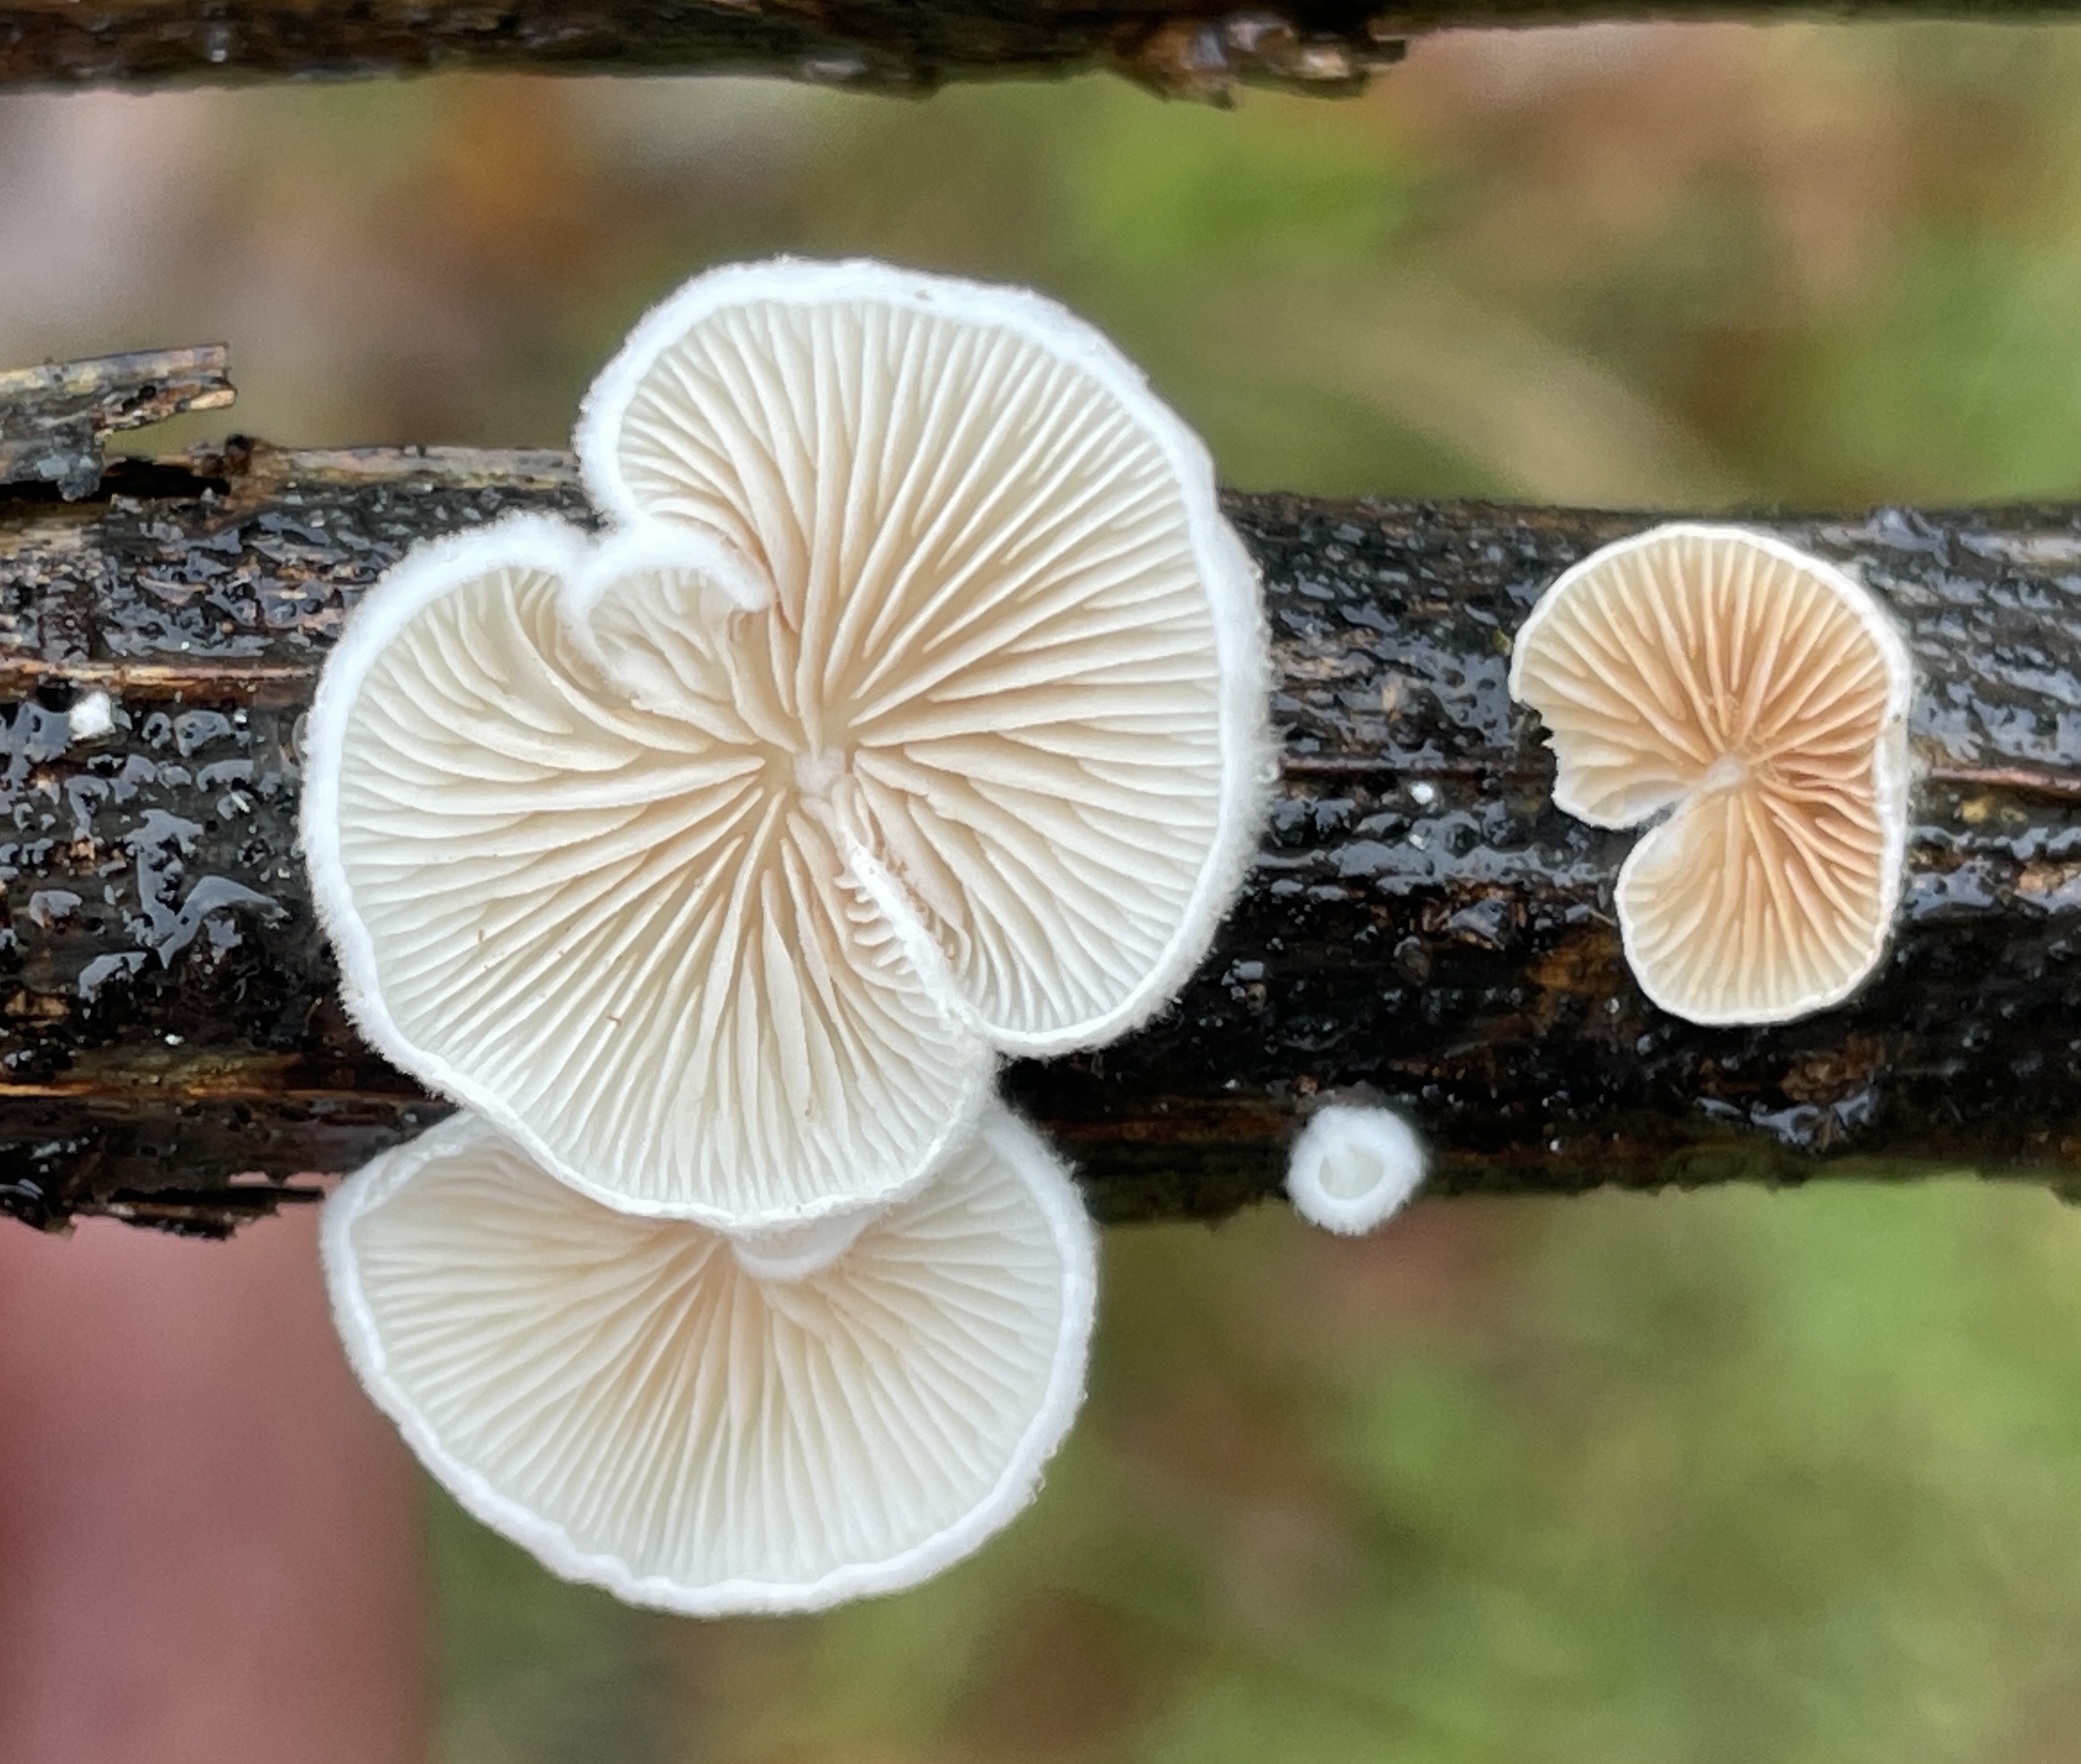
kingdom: Fungi
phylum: Basidiomycota
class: Agaricomycetes
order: Agaricales
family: Crepidotaceae
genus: Crepidotus
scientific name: Crepidotus
